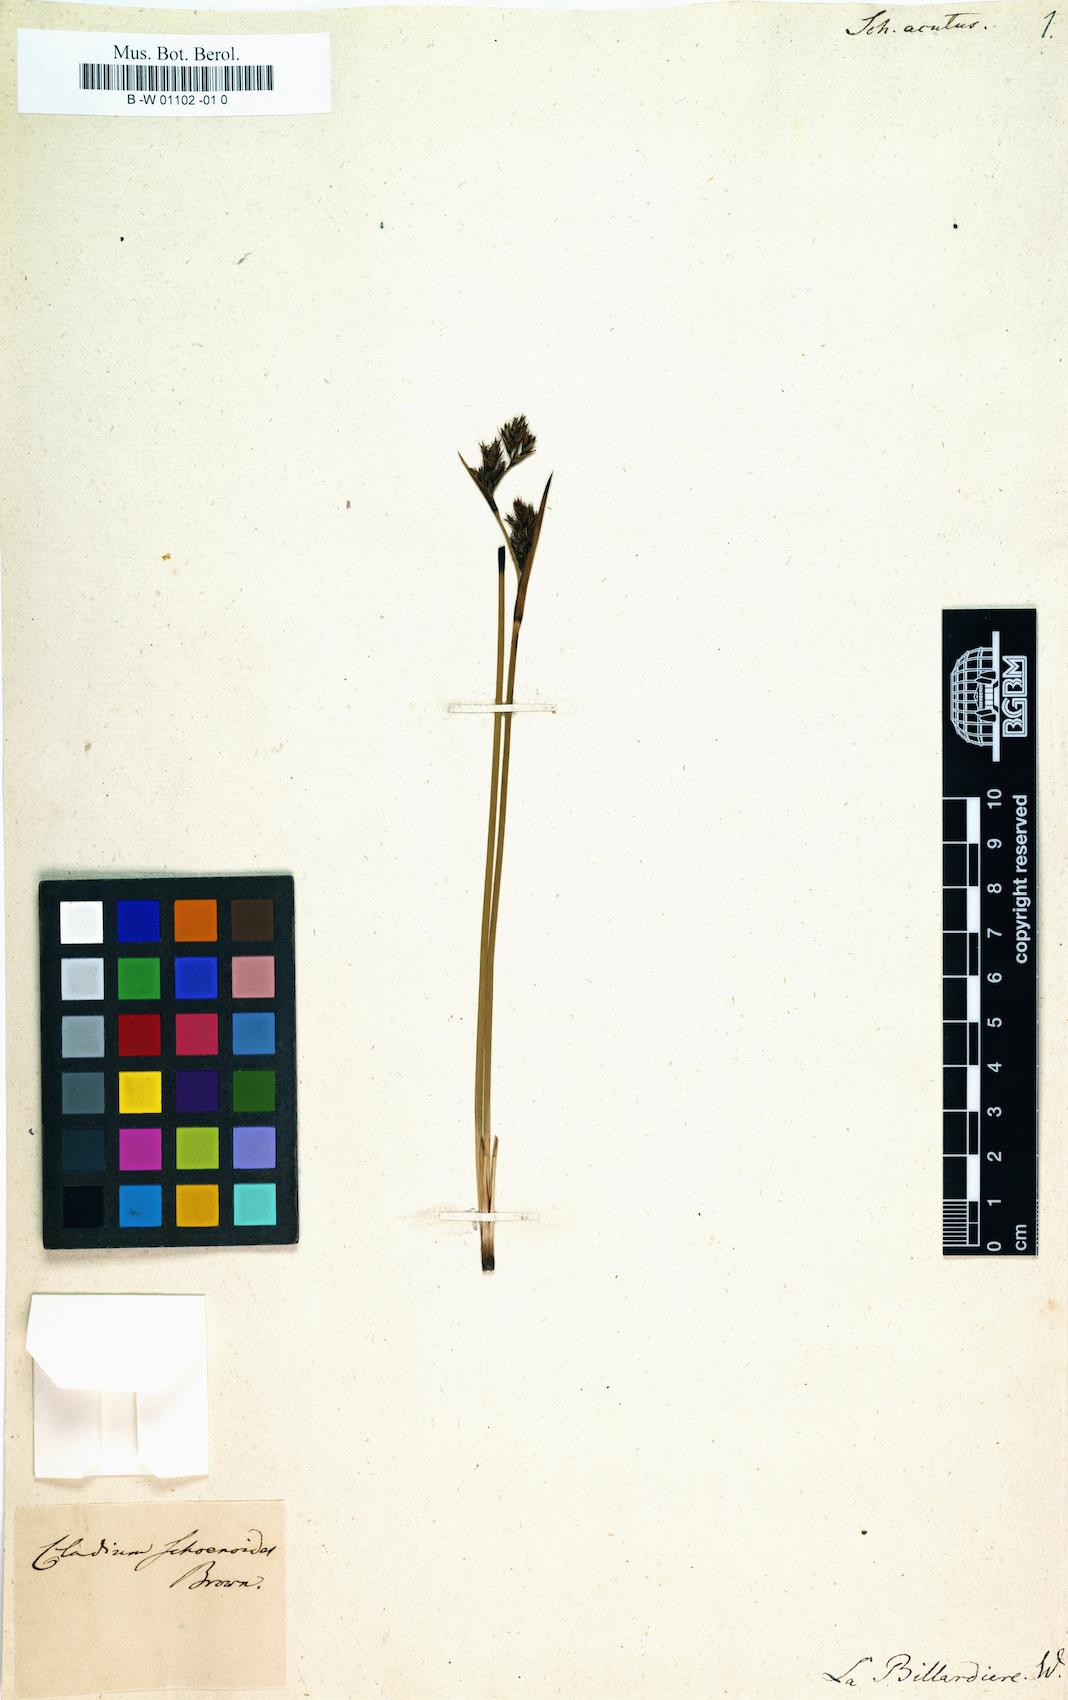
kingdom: Plantae
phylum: Tracheophyta
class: Liliopsida
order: Poales
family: Cyperaceae
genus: Machaerina
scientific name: Machaerina acuta
